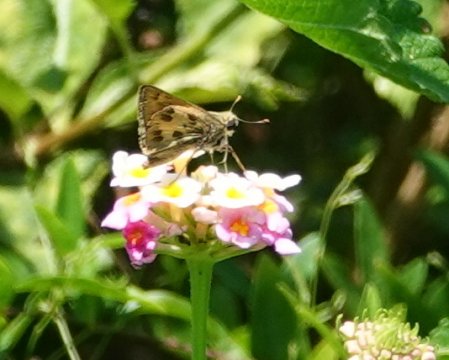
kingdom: Animalia
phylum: Arthropoda
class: Insecta
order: Lepidoptera
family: Hesperiidae
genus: Polites
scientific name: Polites vibex
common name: Whirlabout
